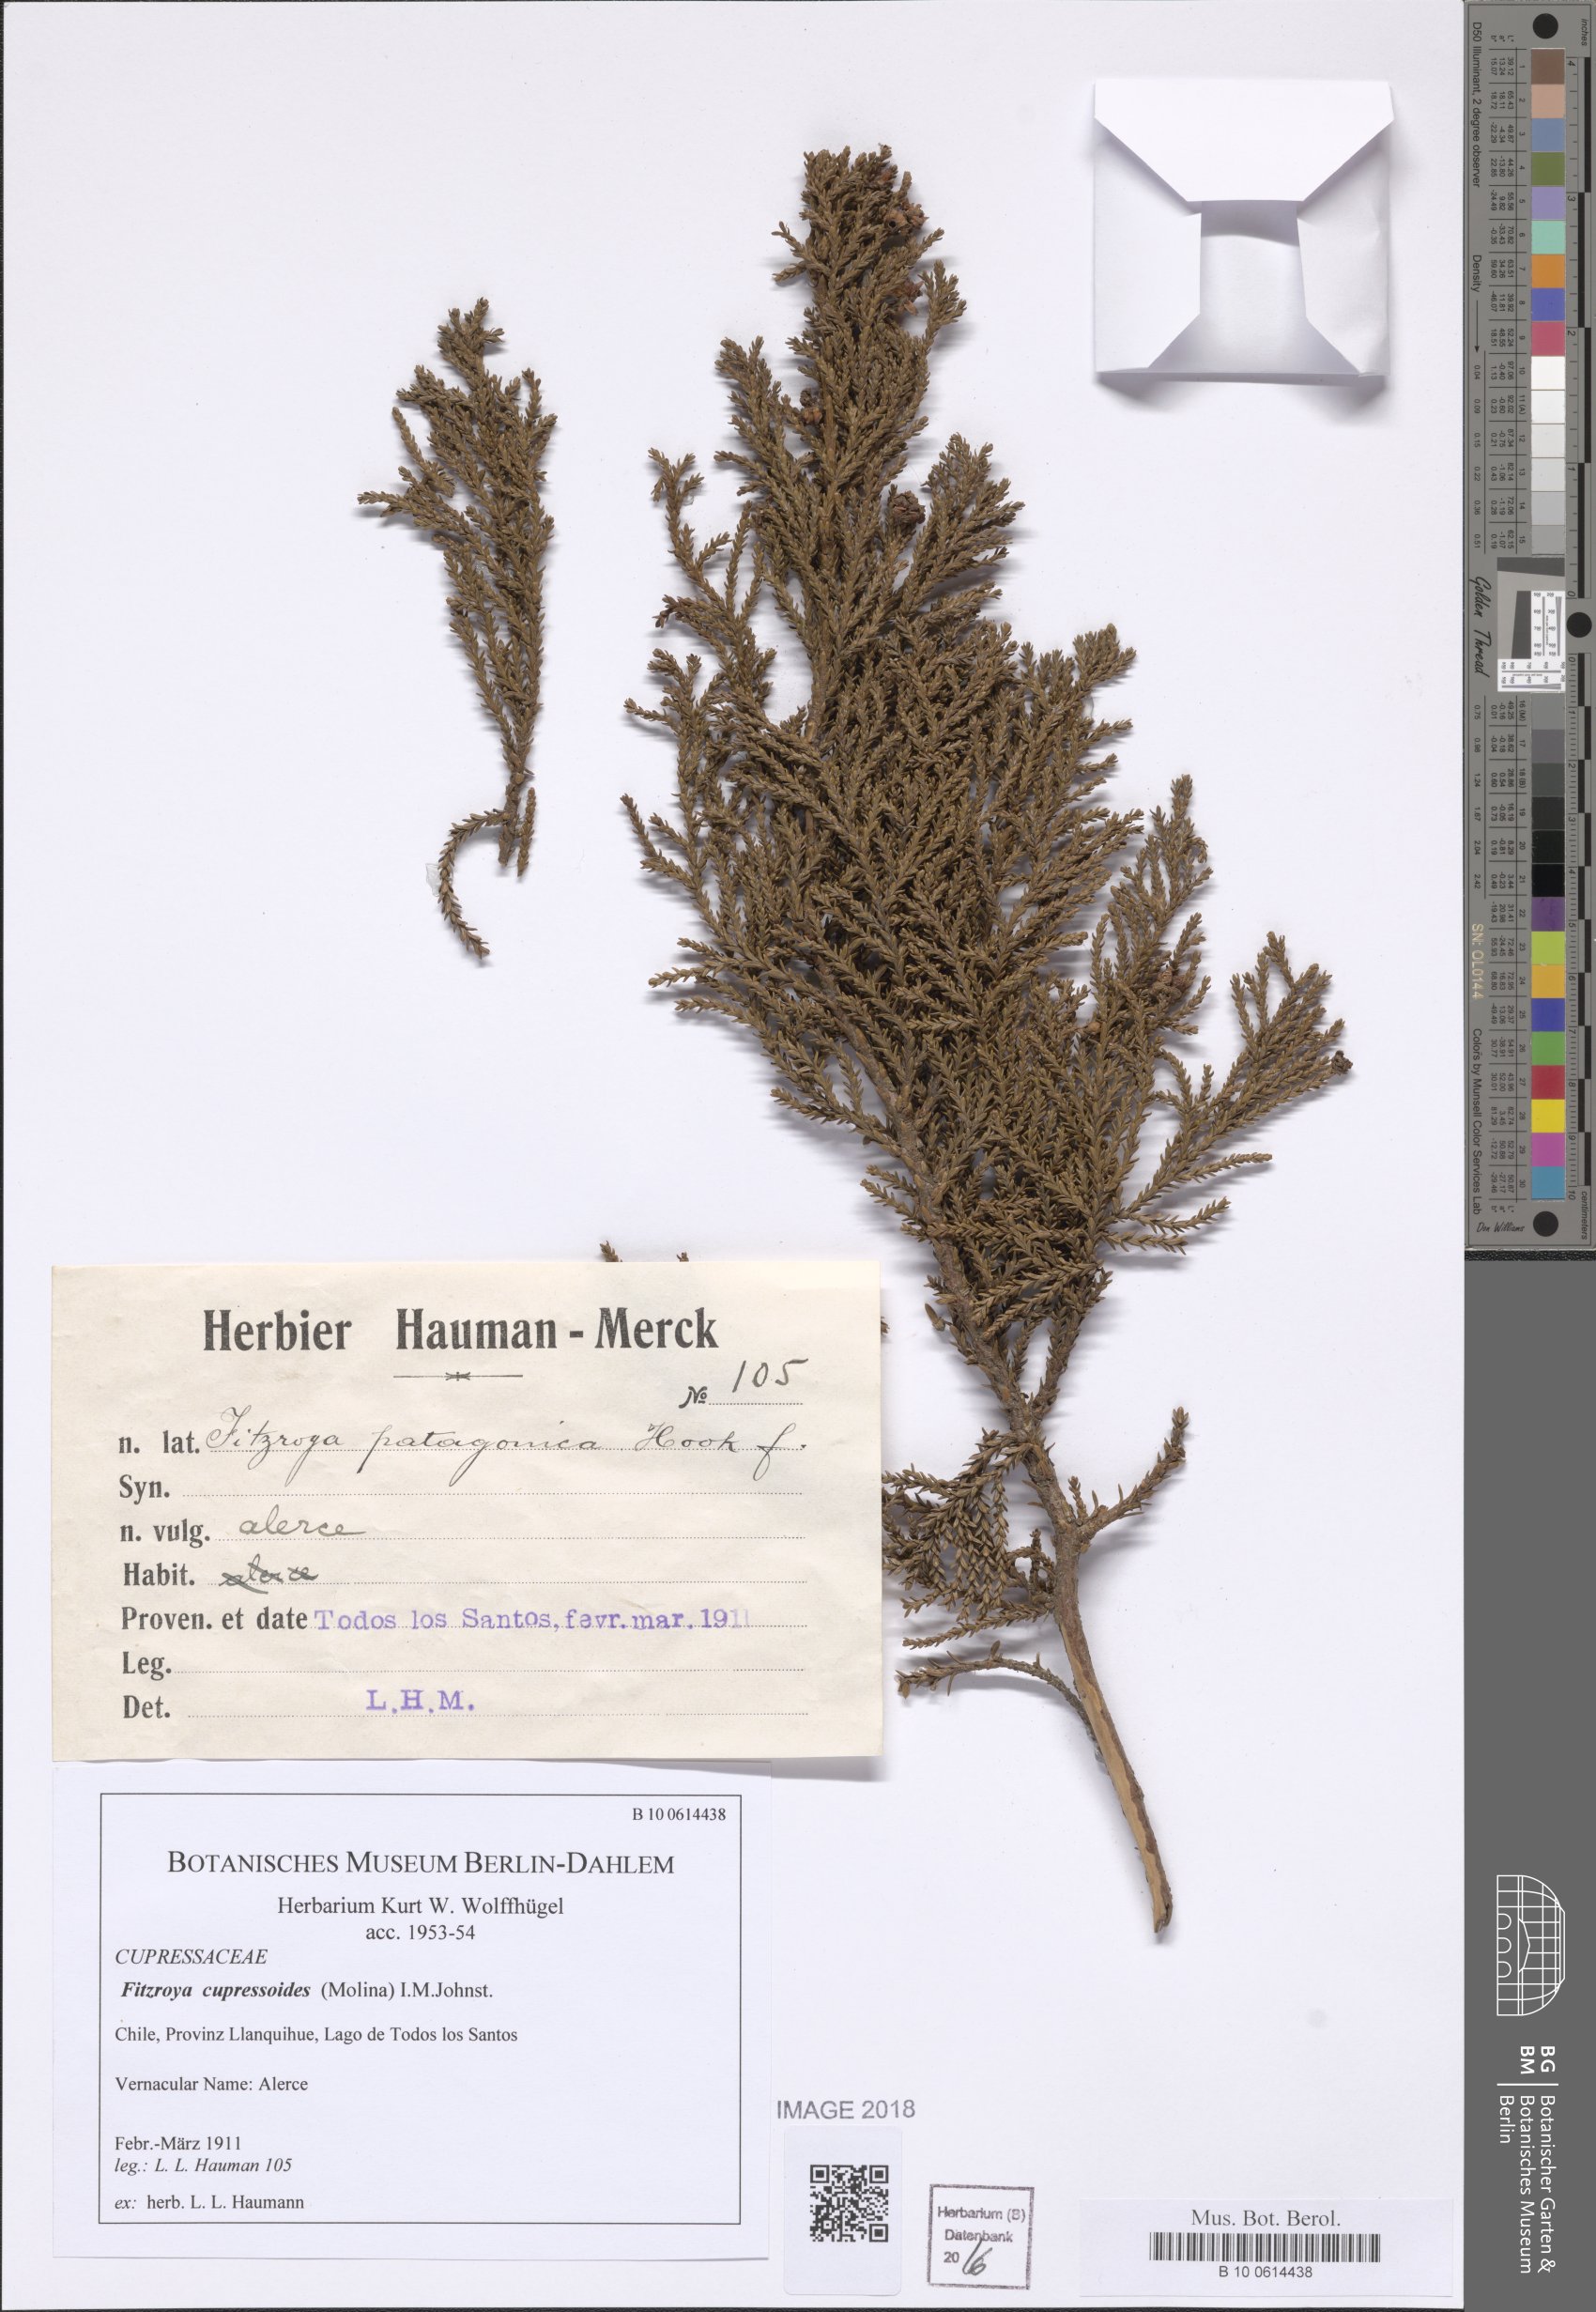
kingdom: Plantae
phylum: Tracheophyta
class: Pinopsida
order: Pinales
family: Cupressaceae
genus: Fitzroya
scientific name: Fitzroya cupressoides
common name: Patagonian cypress
